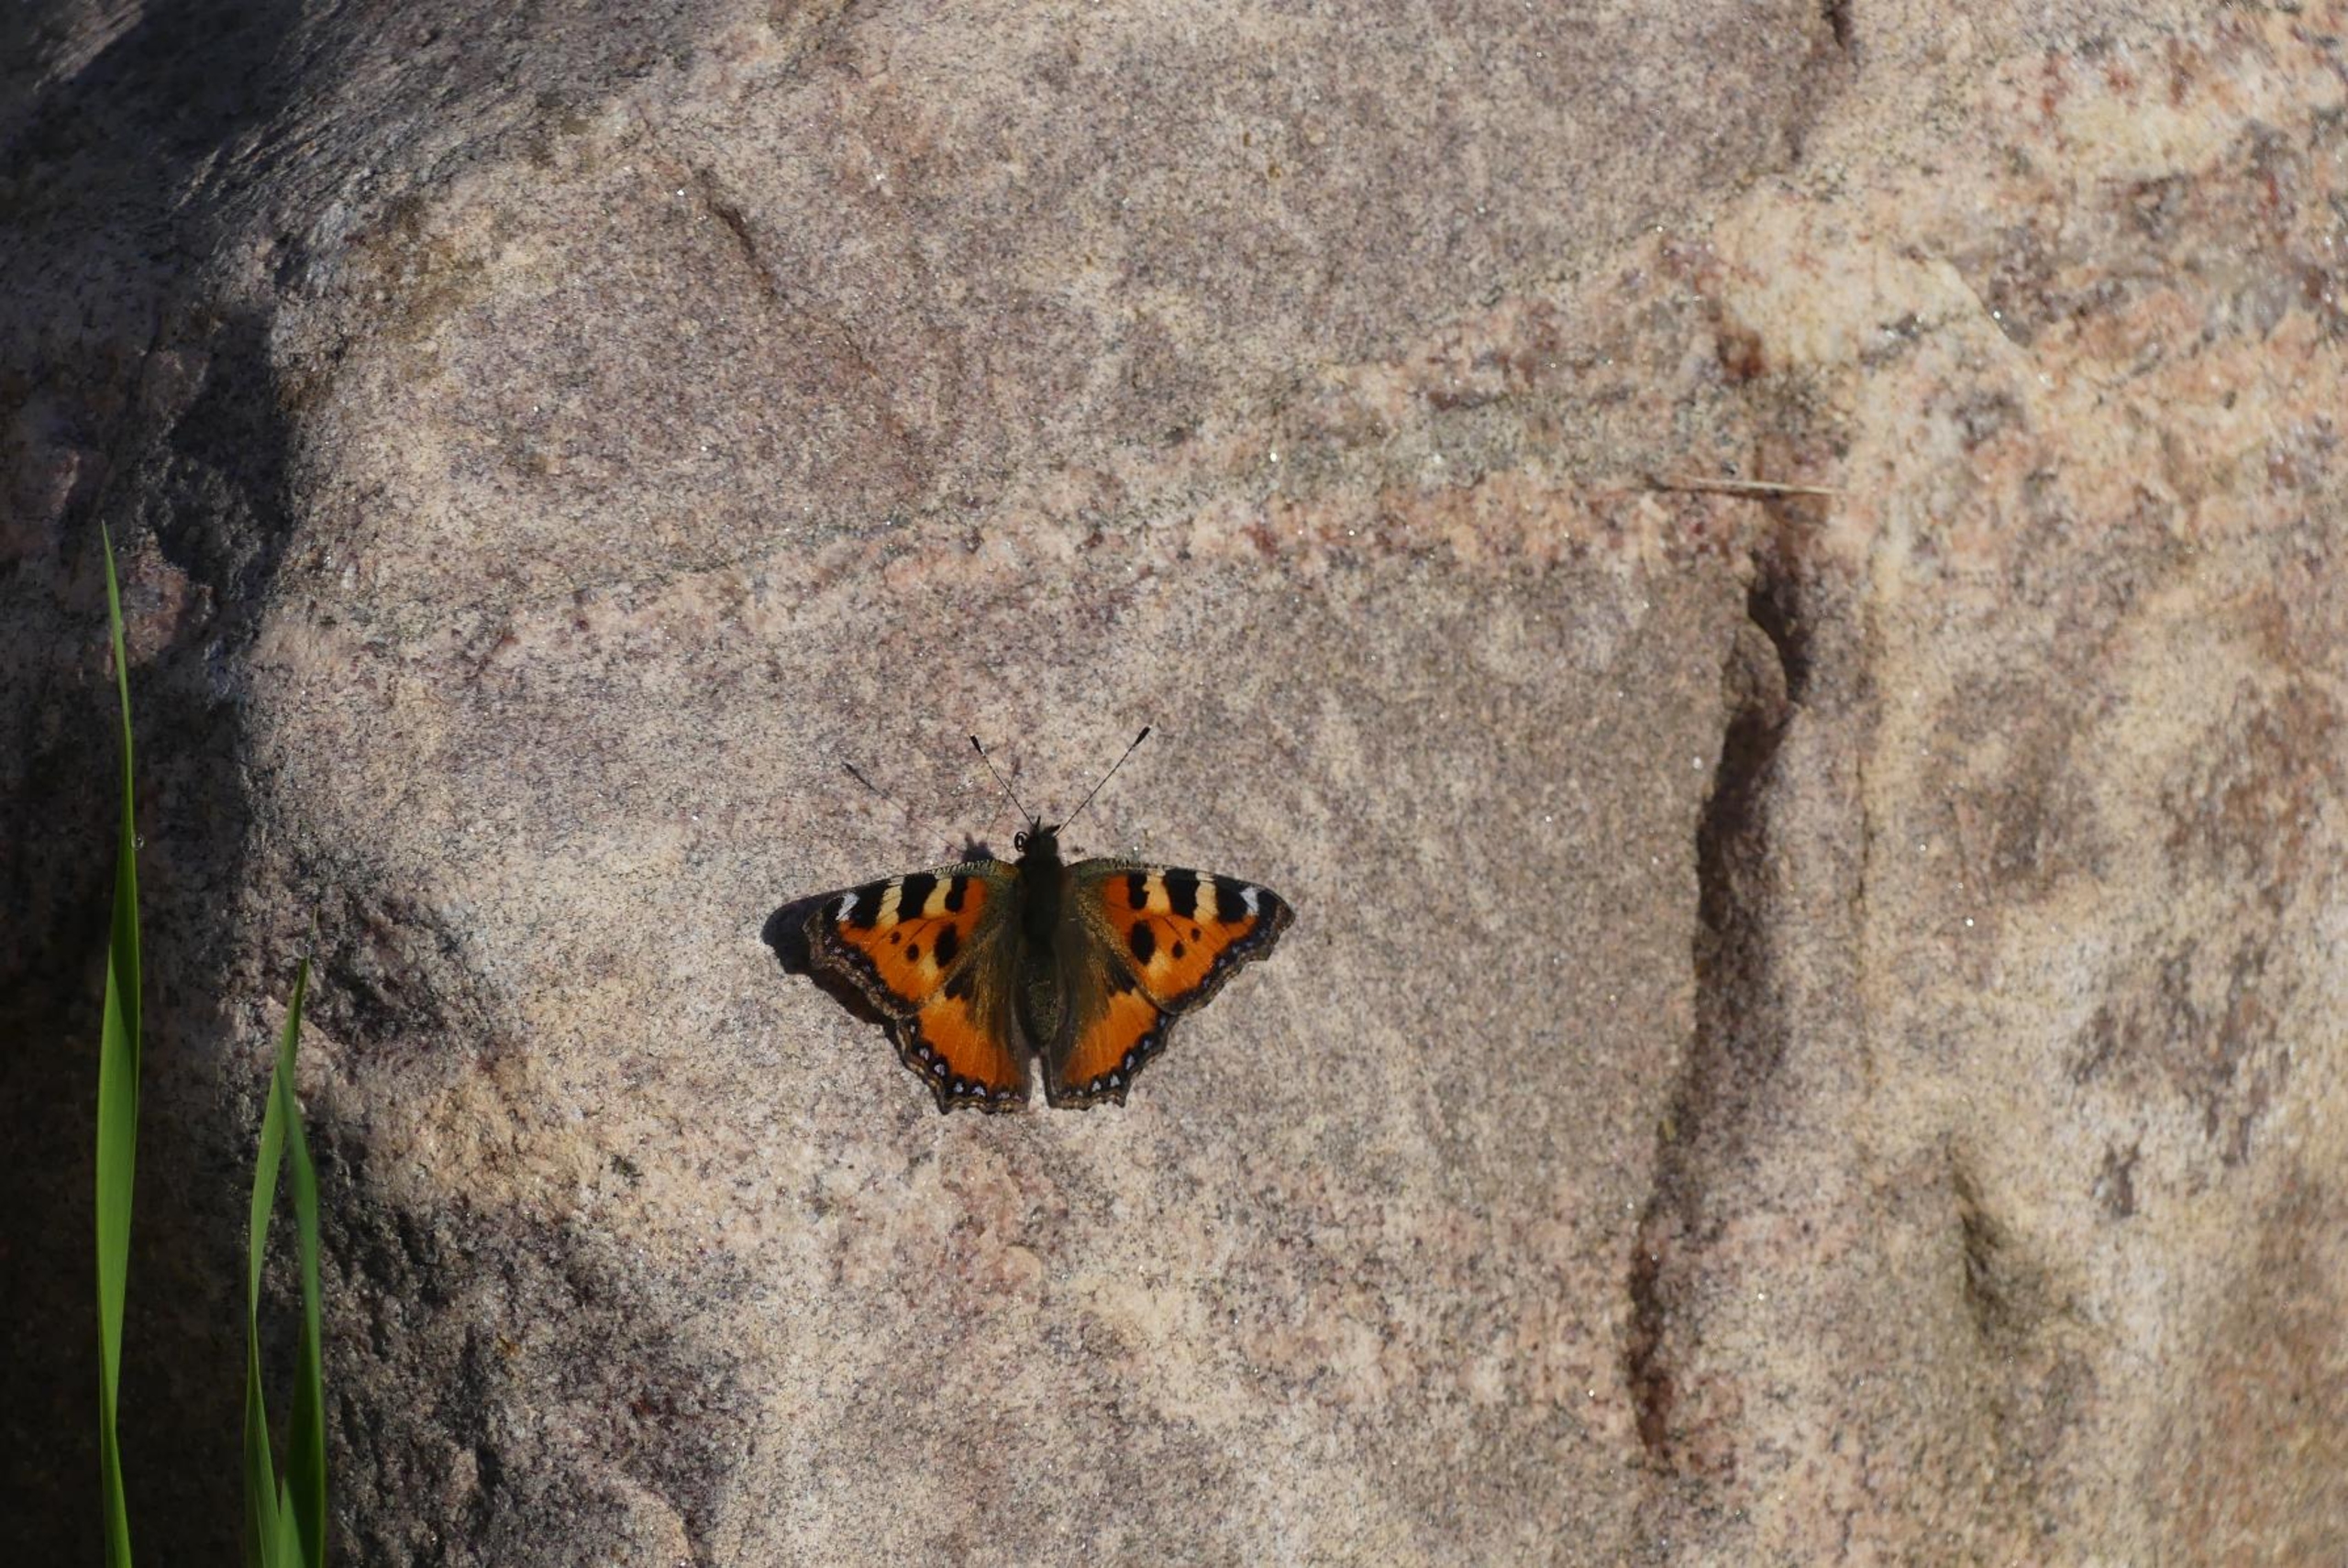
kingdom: Animalia
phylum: Arthropoda
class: Insecta
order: Lepidoptera
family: Nymphalidae
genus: Aglais
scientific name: Aglais urticae
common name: Nældens takvinge
